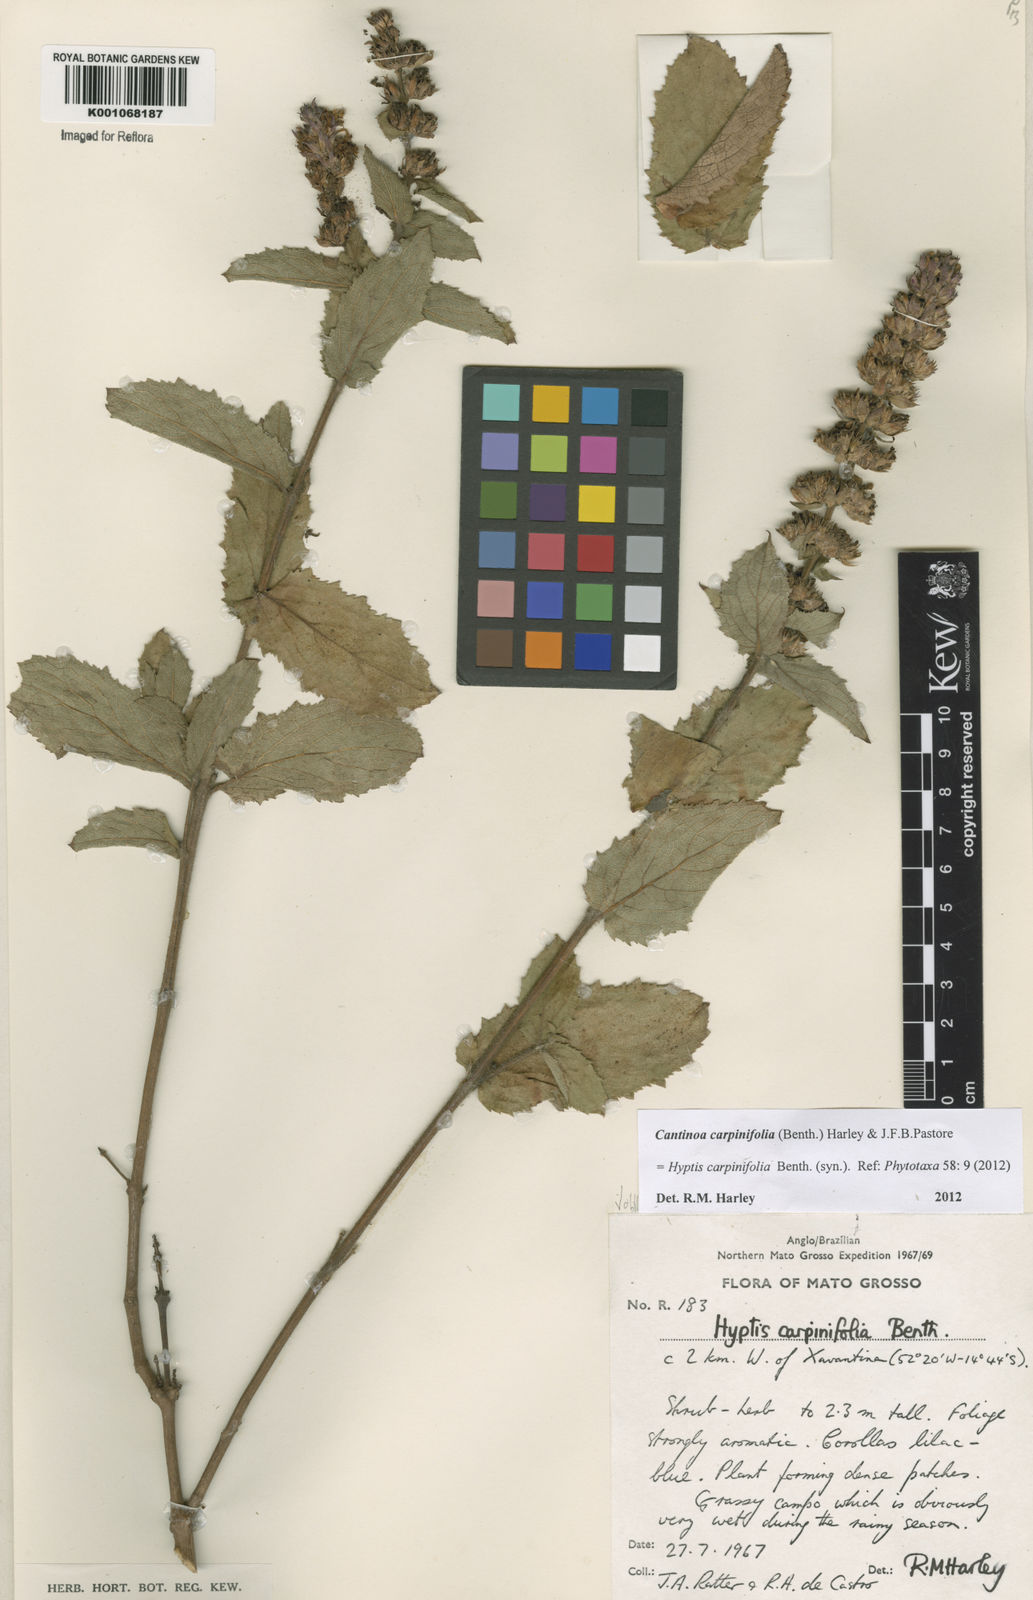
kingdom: Plantae
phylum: Tracheophyta
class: Magnoliopsida
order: Lamiales
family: Lamiaceae
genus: Cantinoa
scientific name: Cantinoa carpinifolia
